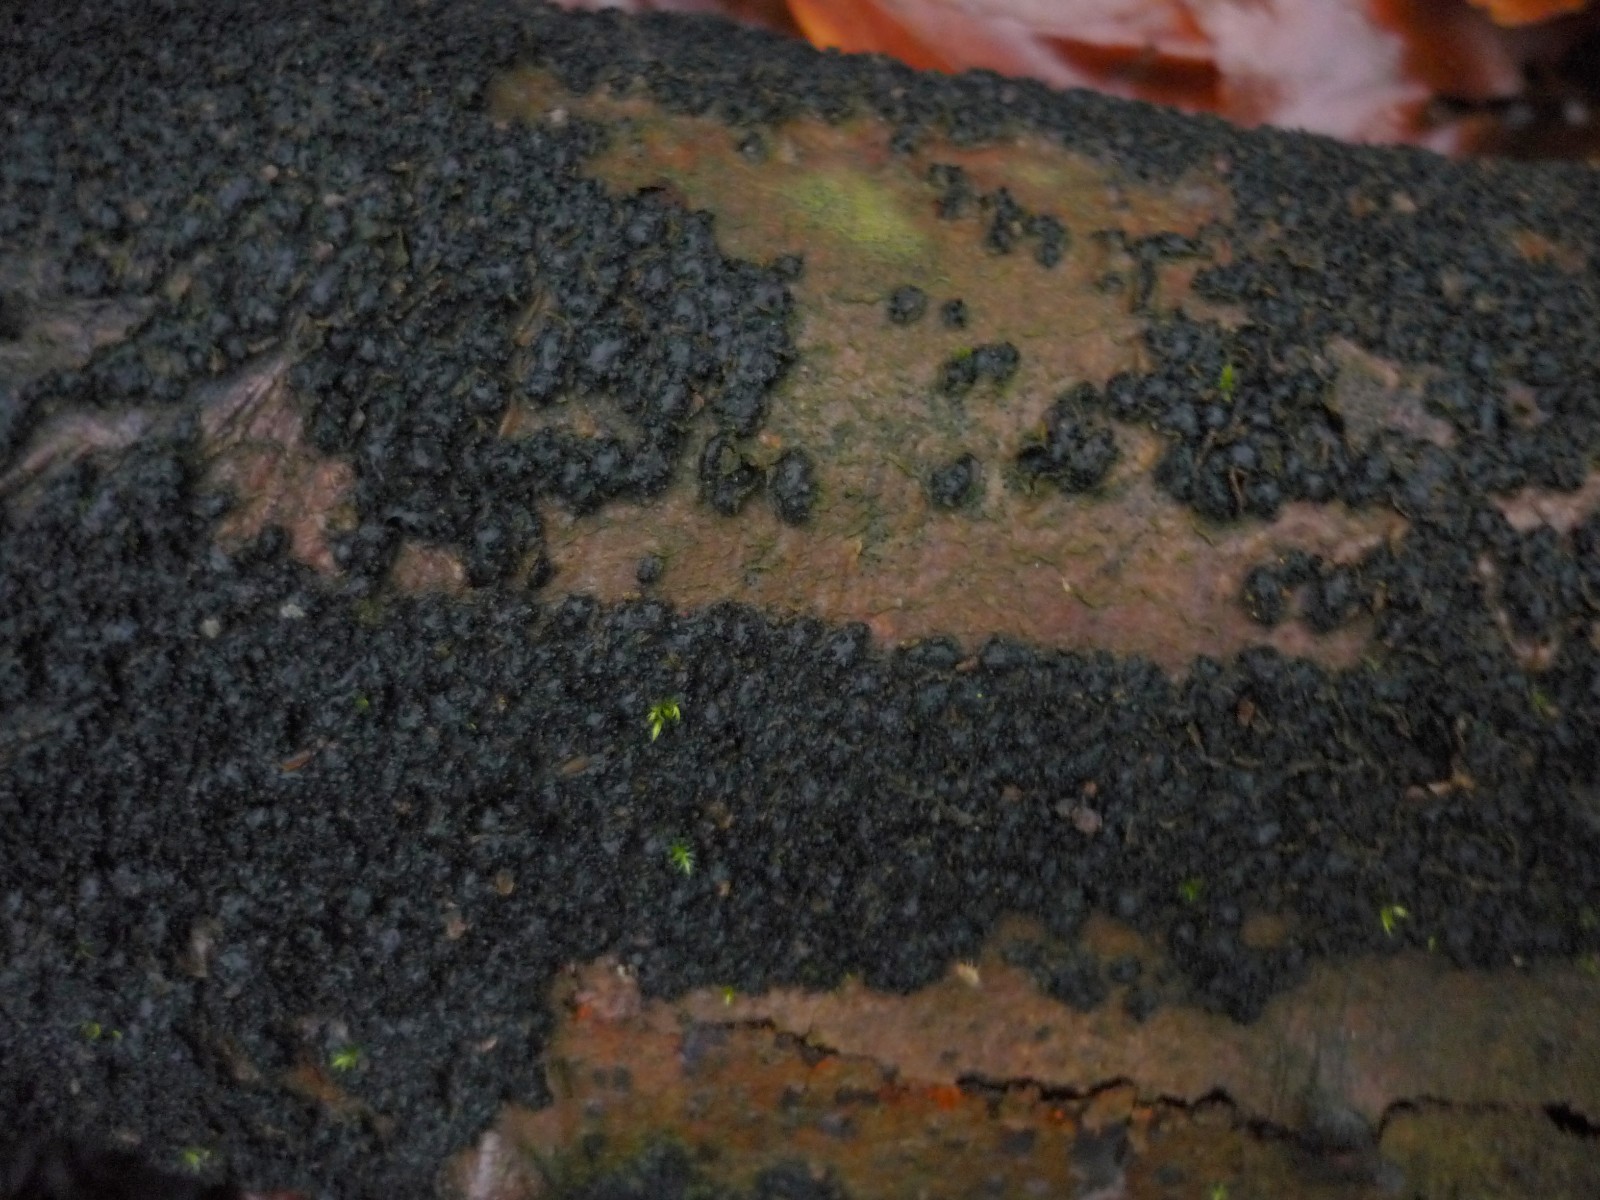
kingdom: Fungi
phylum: Ascomycota
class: Leotiomycetes
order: Rhytismatales
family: Ascodichaenaceae
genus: Ascodichaena
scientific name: Ascodichaena rugosa
